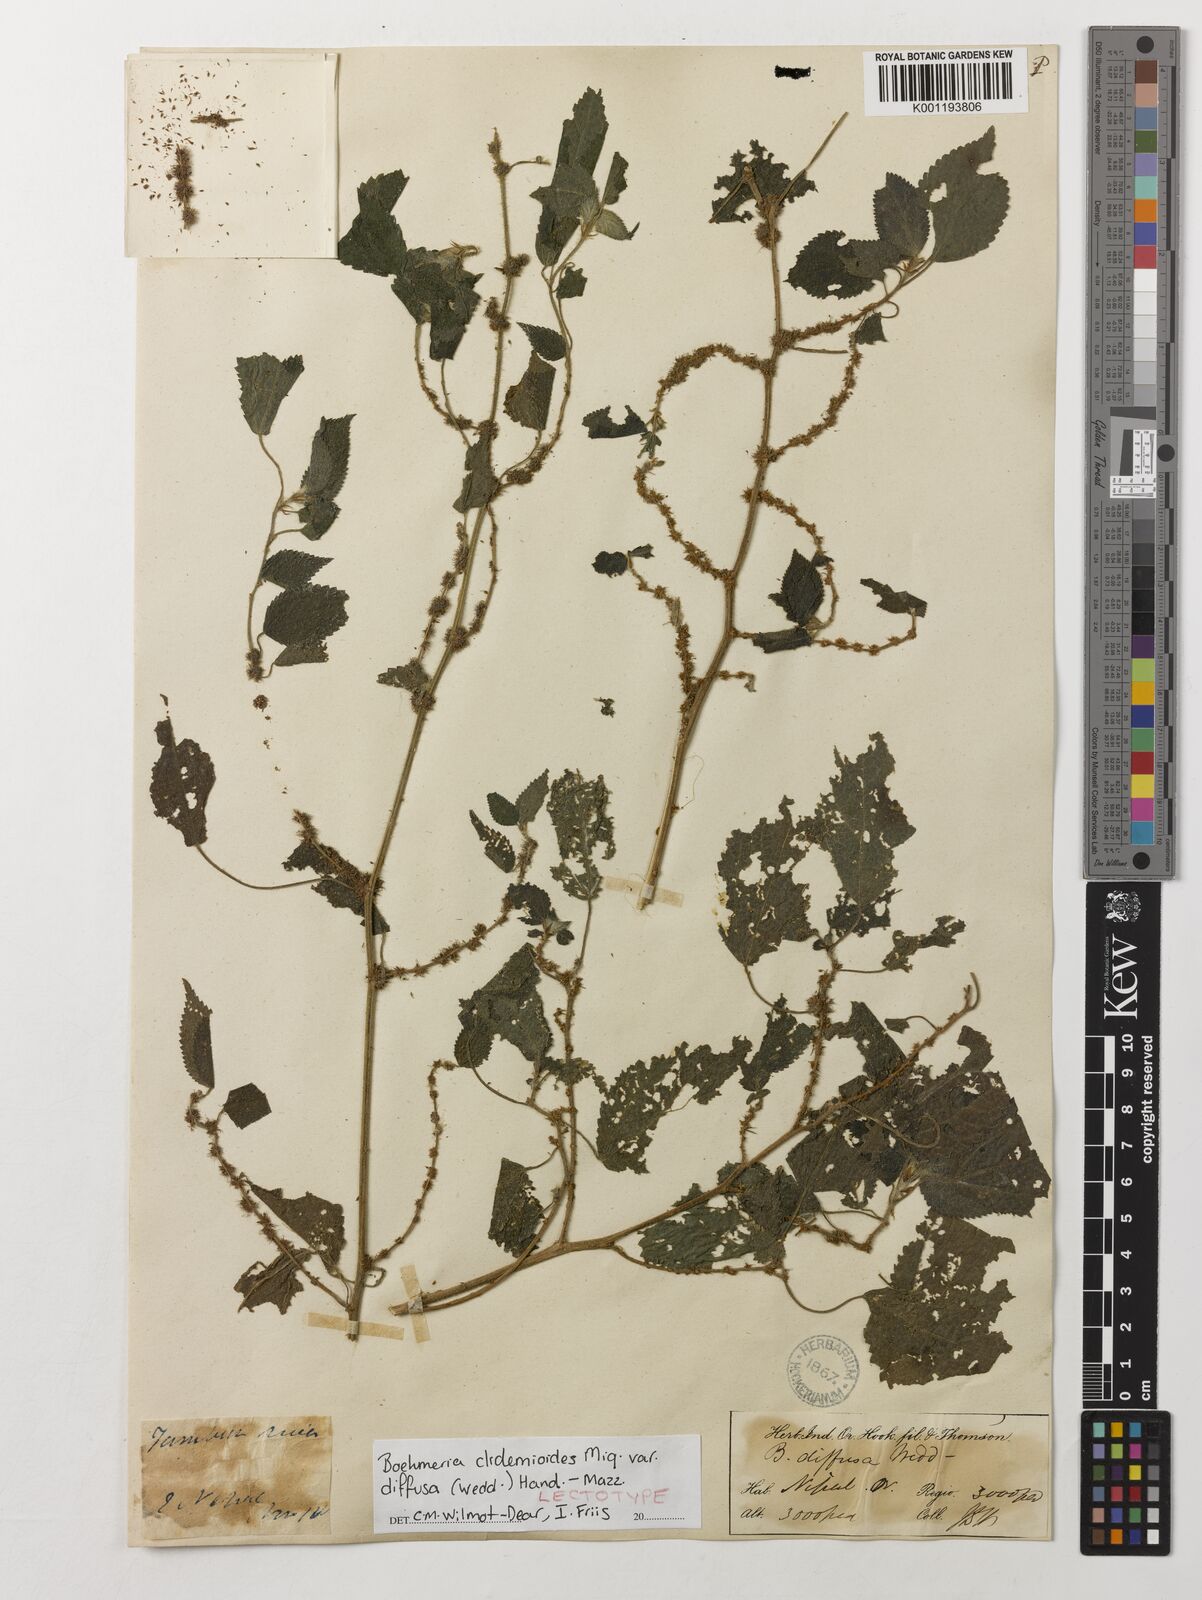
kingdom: Plantae
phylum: Tracheophyta
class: Magnoliopsida
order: Rosales
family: Urticaceae
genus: Boehmeria
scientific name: Boehmeria clidemioides
